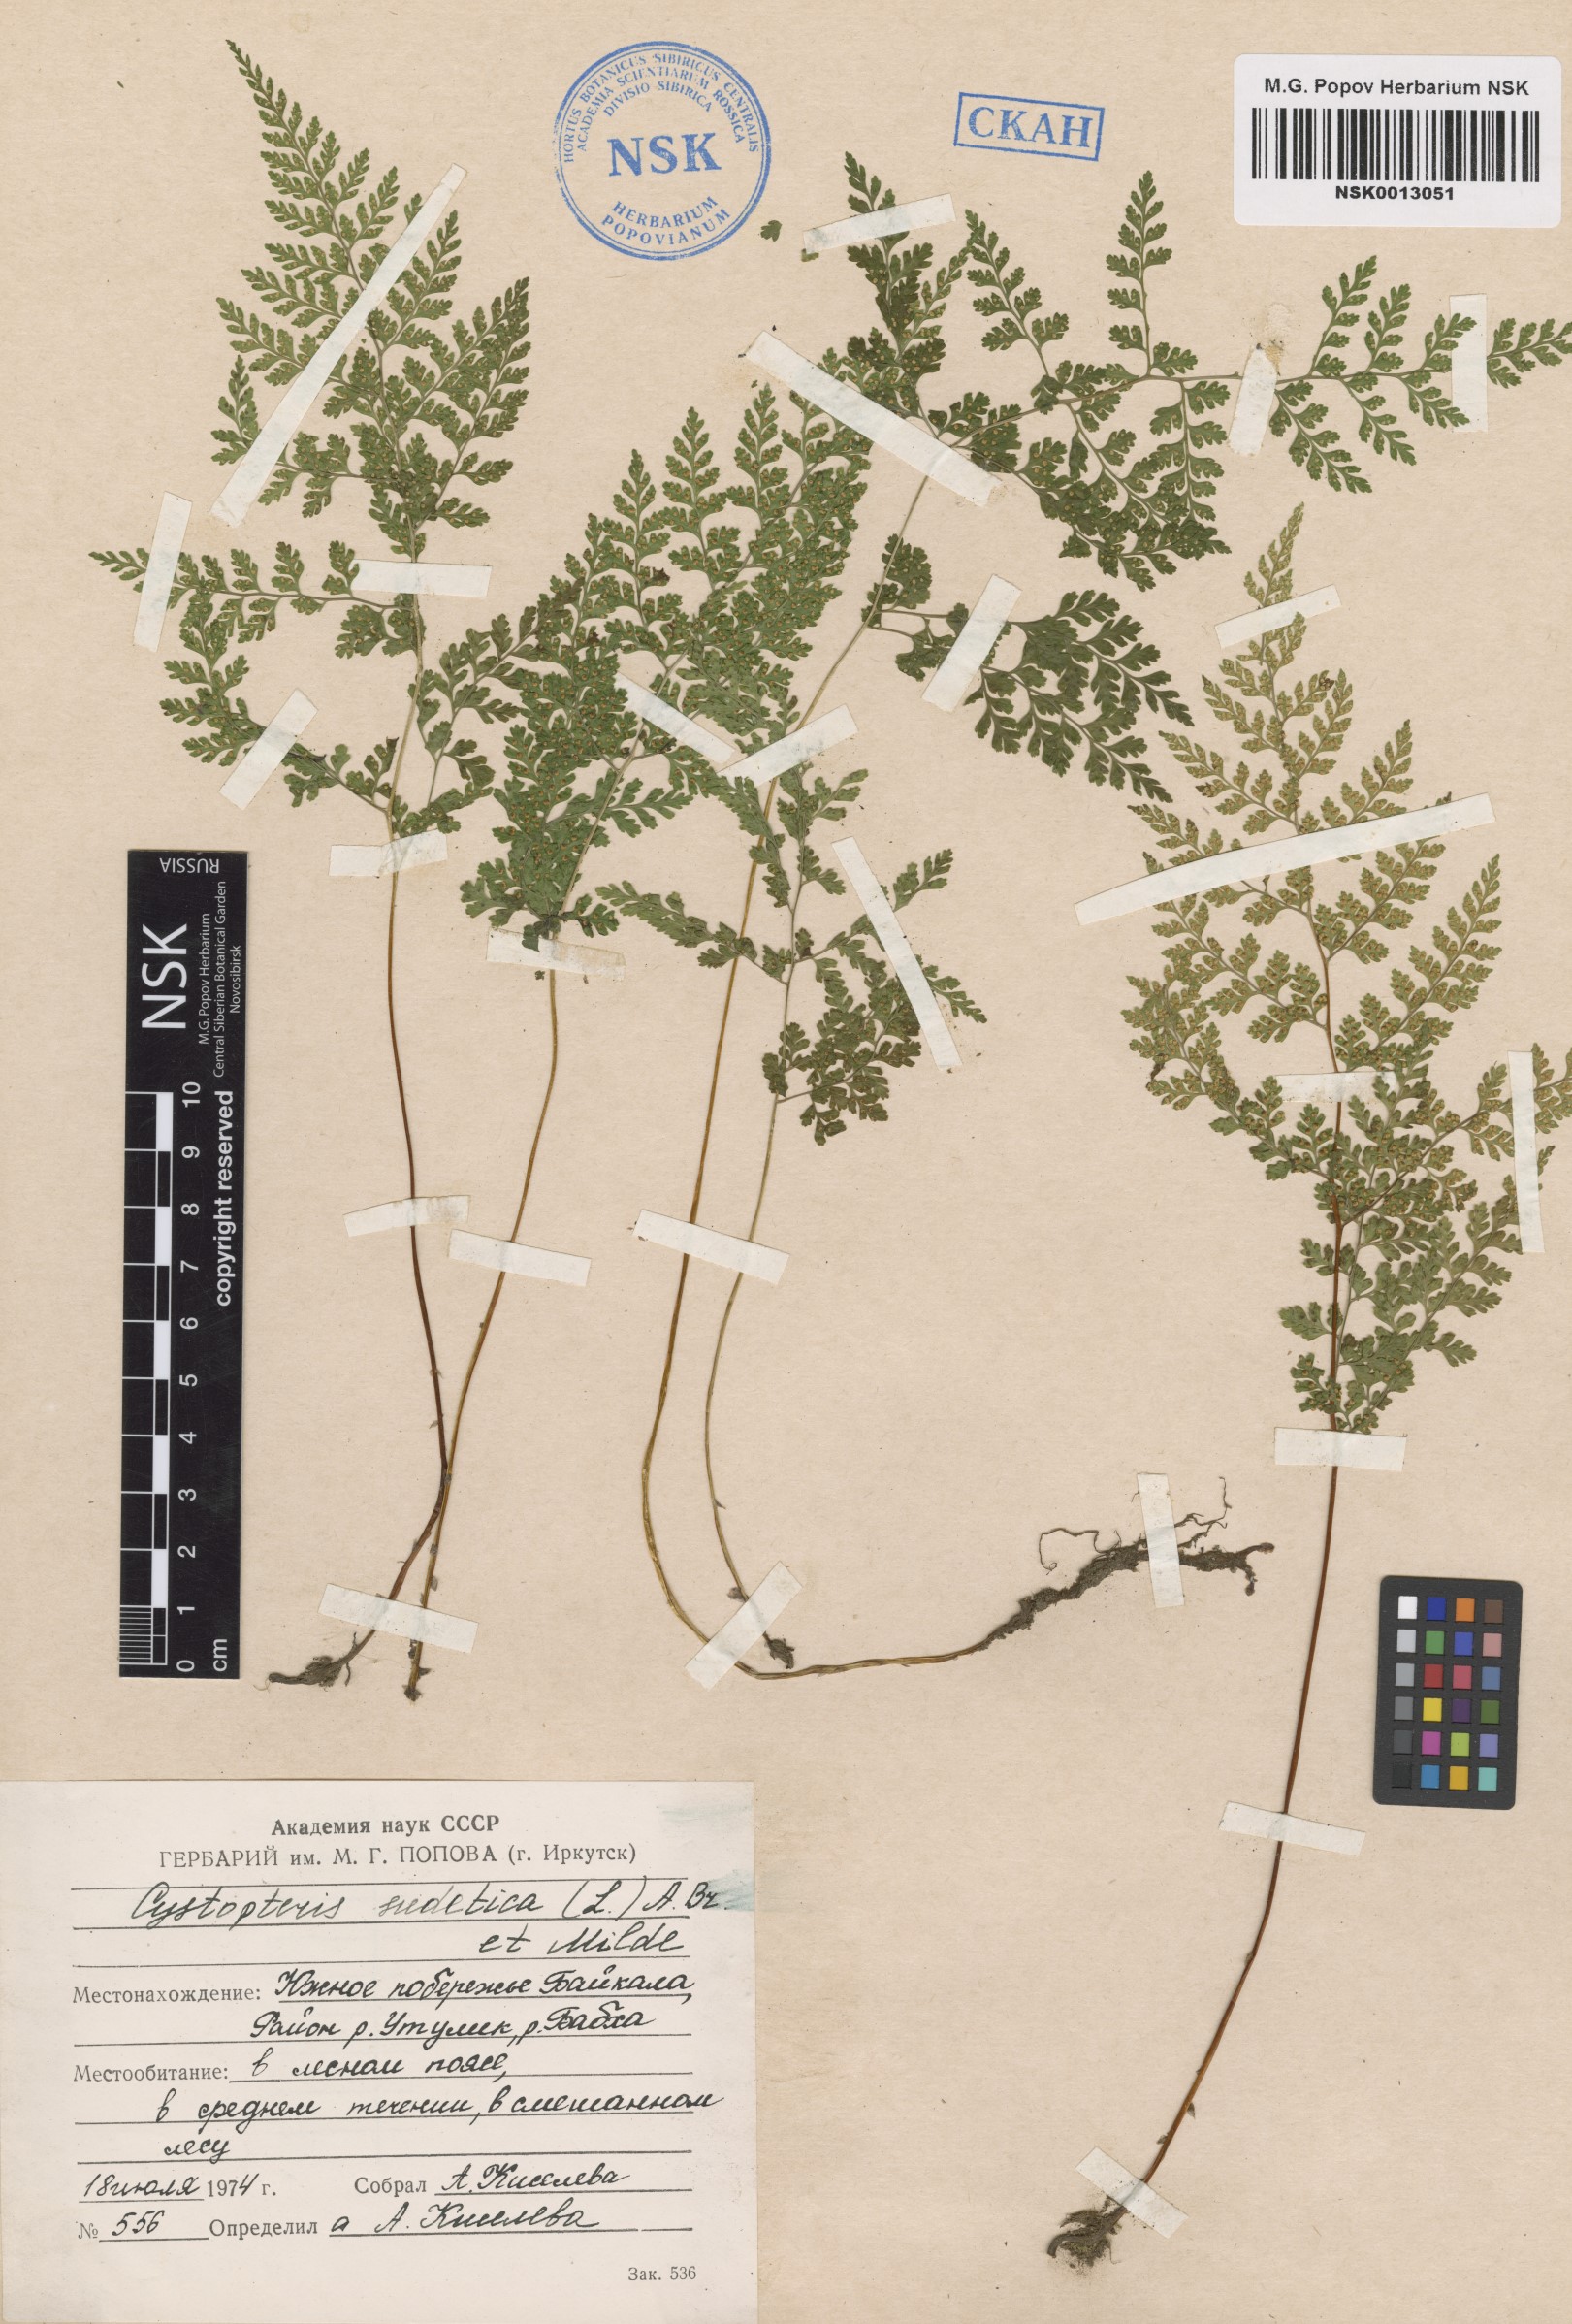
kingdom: Plantae
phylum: Tracheophyta
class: Polypodiopsida
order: Polypodiales
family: Cystopteridaceae
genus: Cystopteris
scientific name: Cystopteris sudetica
